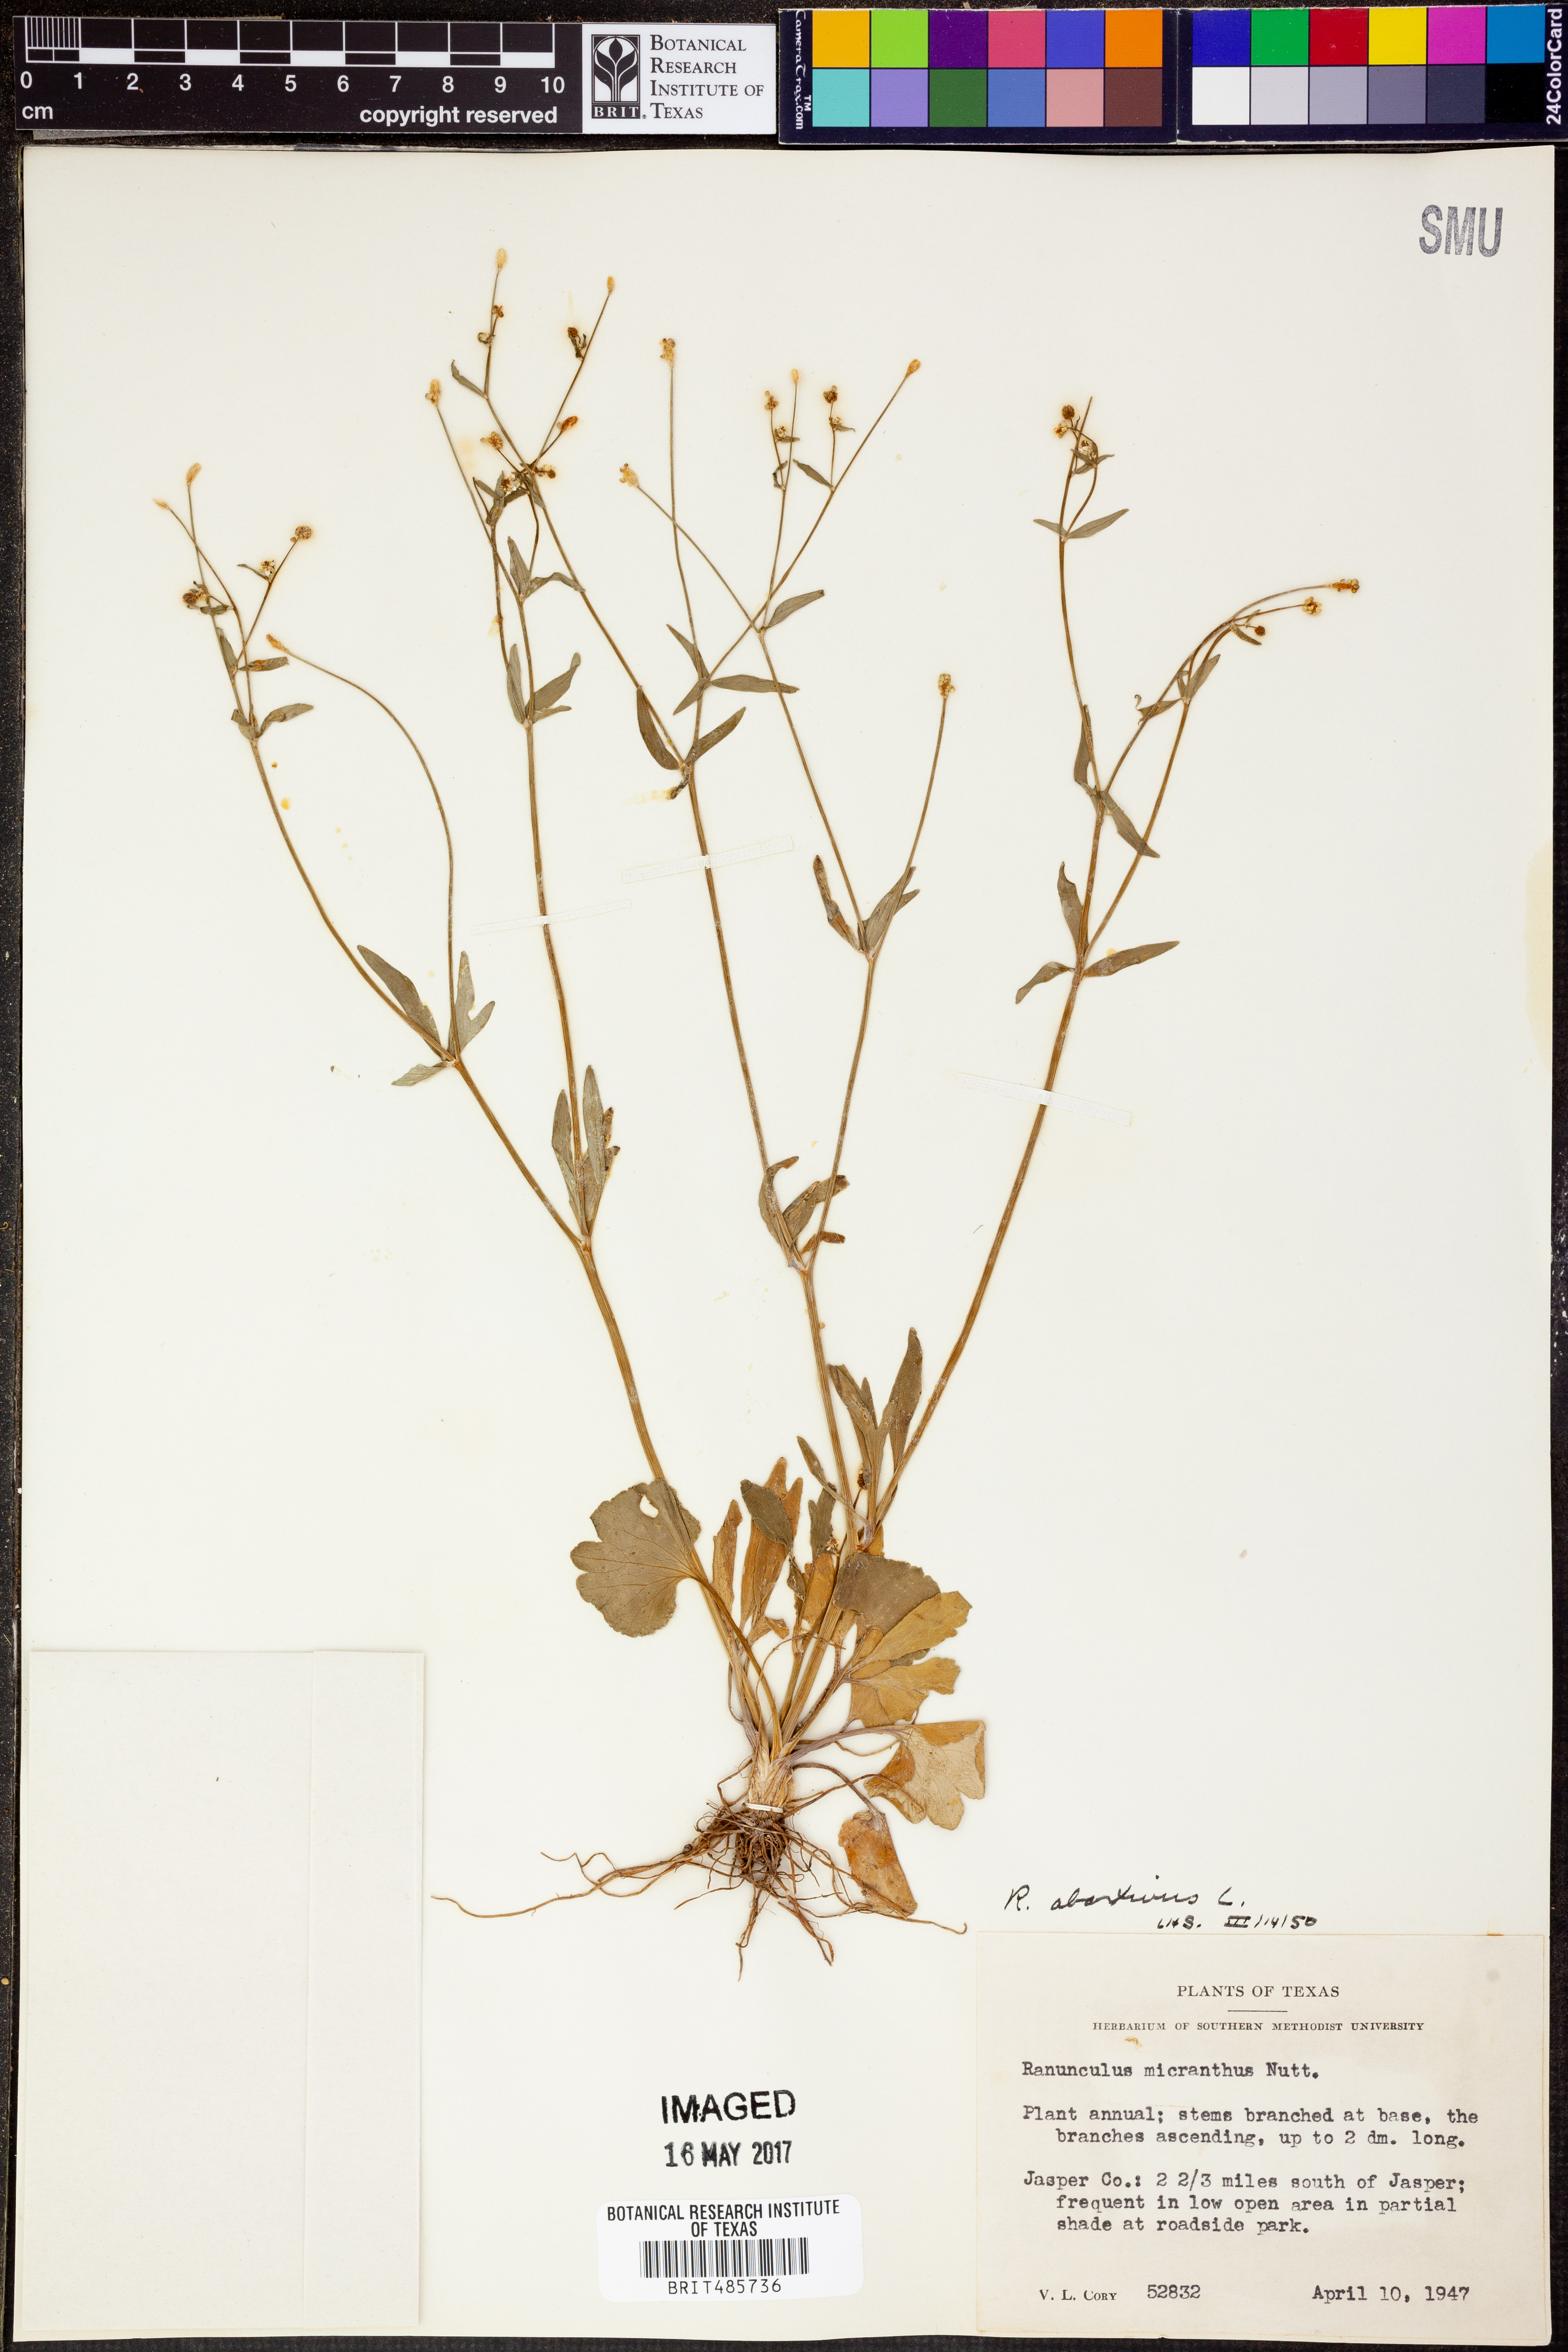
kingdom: Plantae
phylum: Tracheophyta
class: Magnoliopsida
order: Ranunculales
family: Ranunculaceae
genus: Ranunculus
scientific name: Ranunculus abortivus
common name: Early wood buttercup
